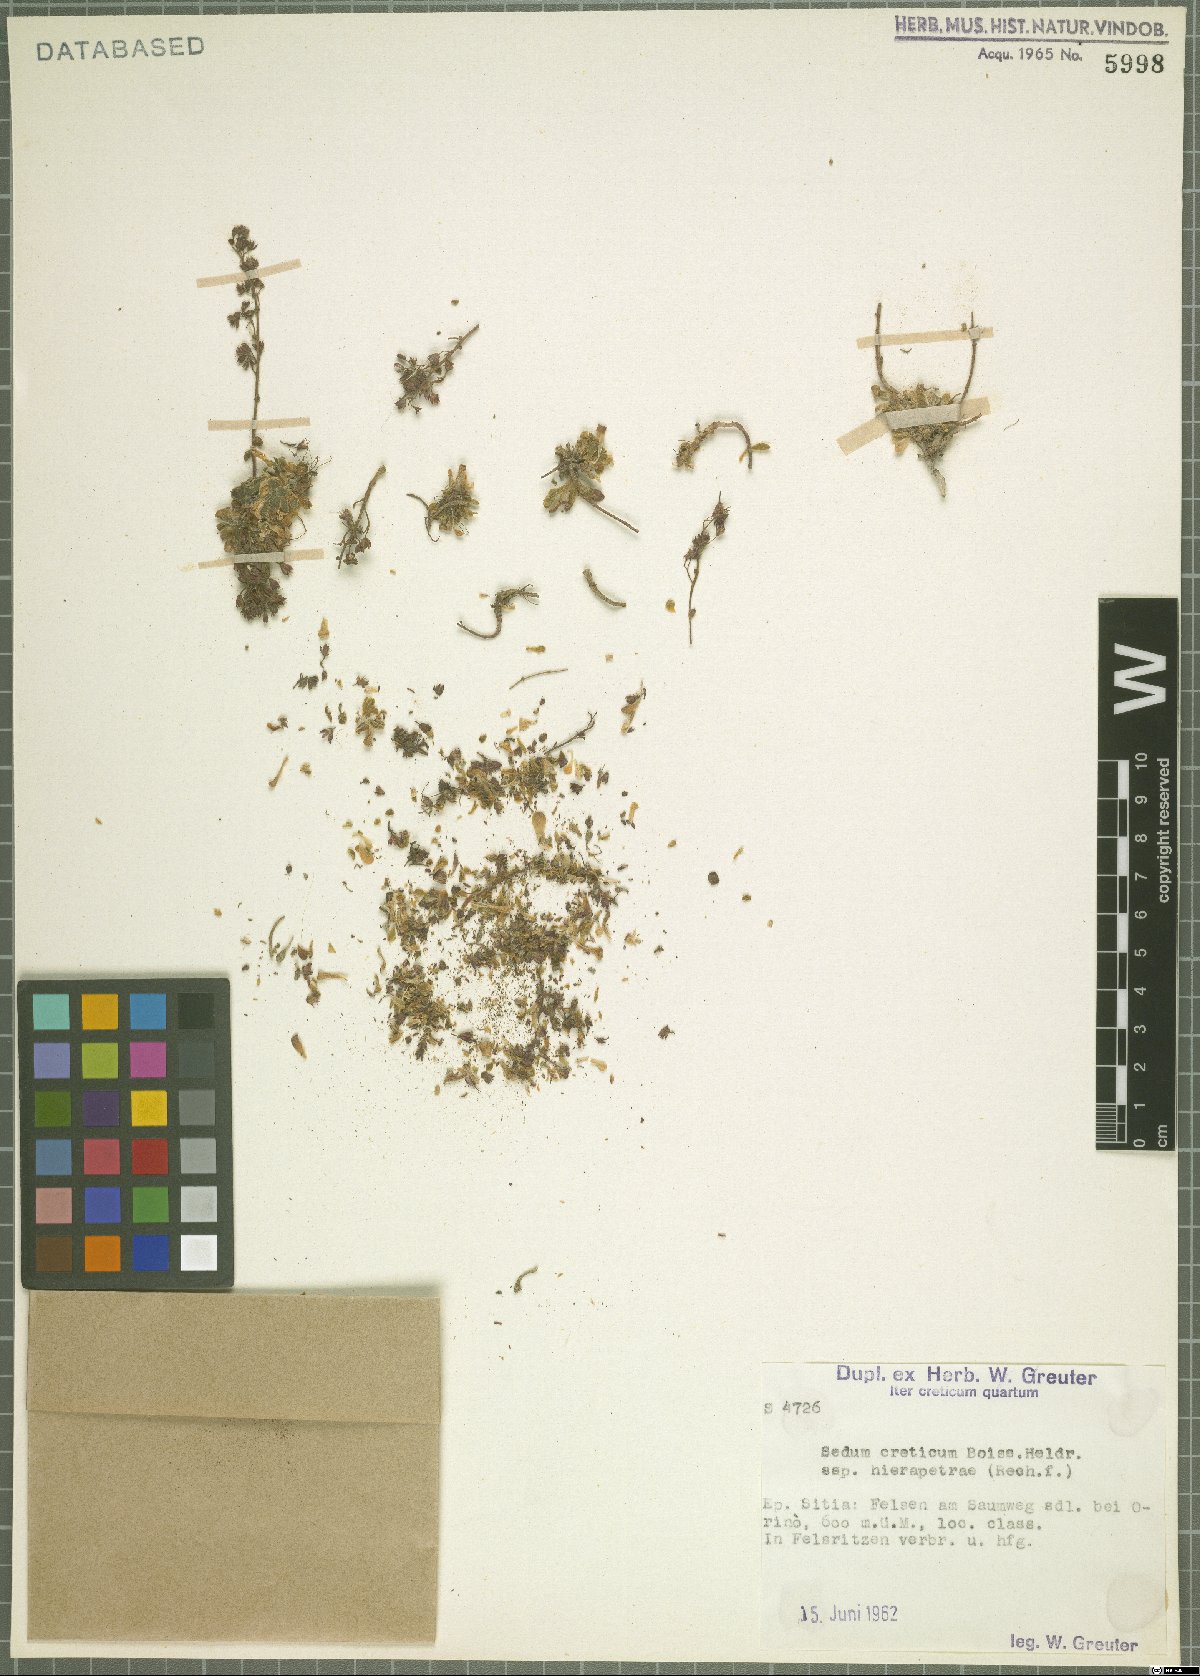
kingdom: Plantae
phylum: Tracheophyta
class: Magnoliopsida
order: Saxifragales
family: Crassulaceae
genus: Sedum
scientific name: Sedum creticum
